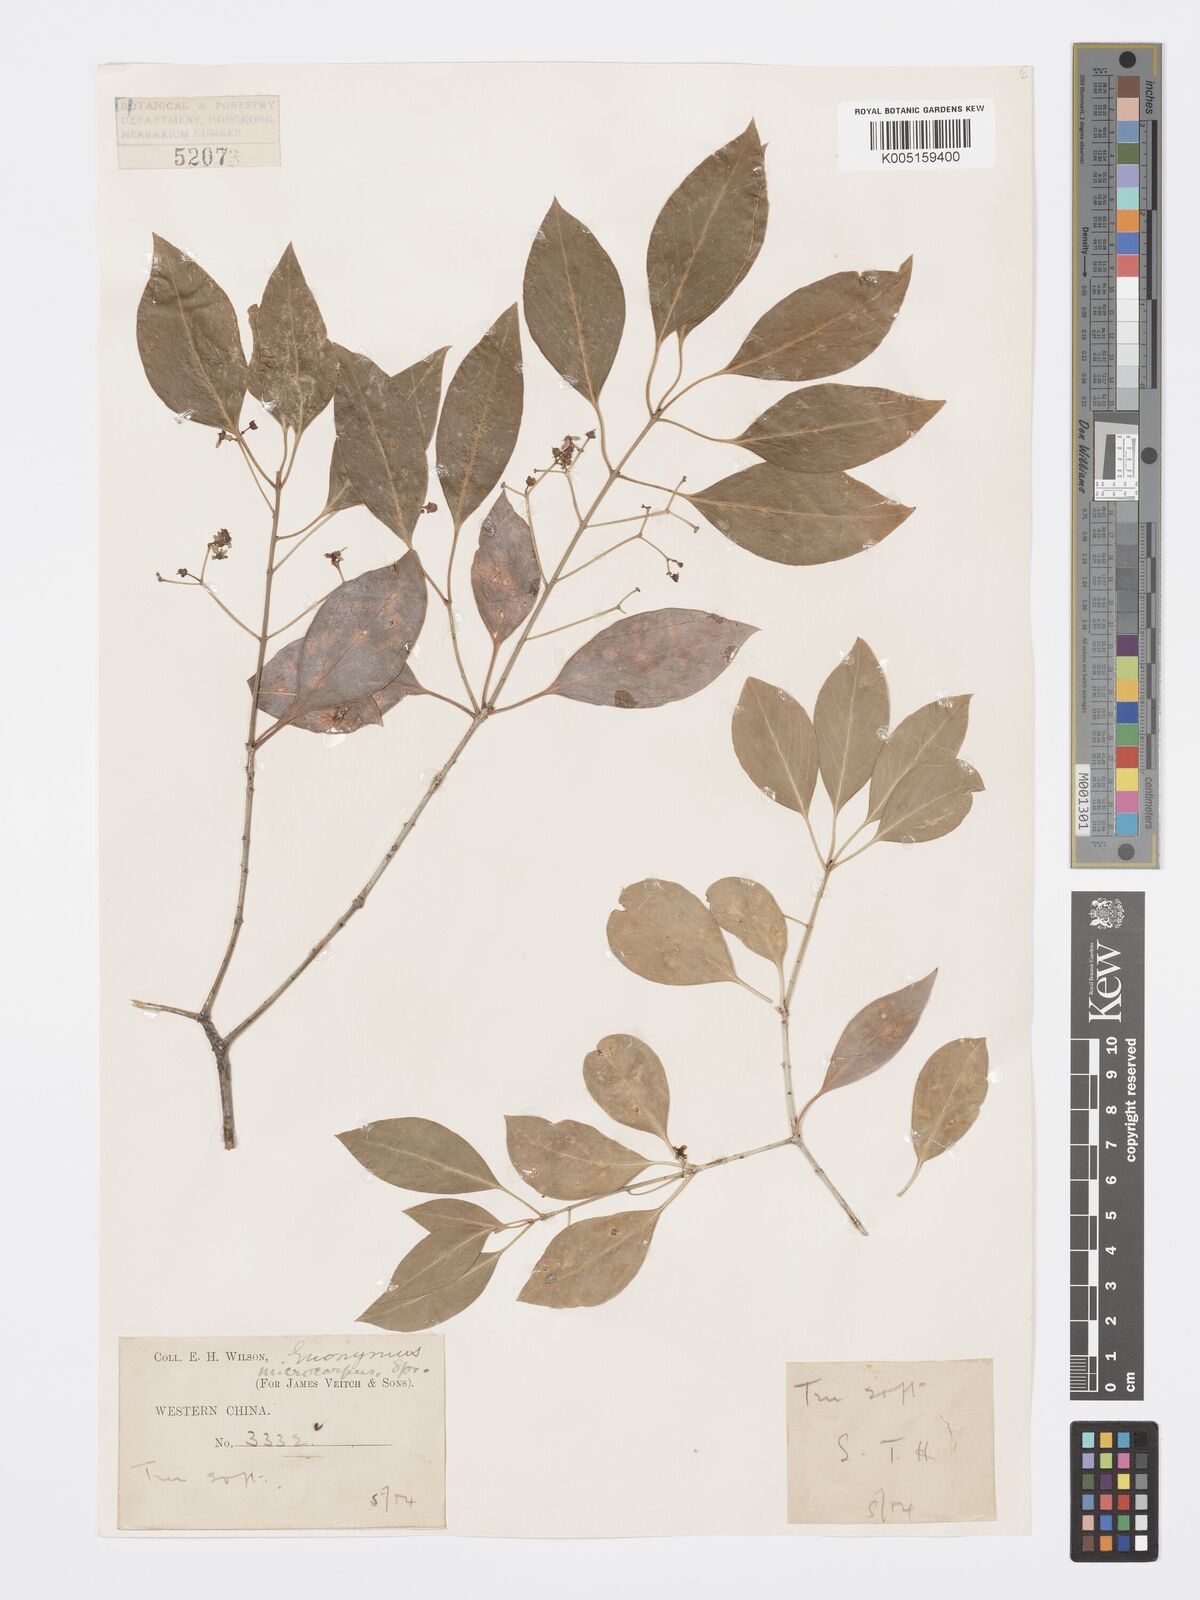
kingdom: Plantae
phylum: Tracheophyta
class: Magnoliopsida
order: Celastrales
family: Celastraceae
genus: Euonymus
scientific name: Euonymus
